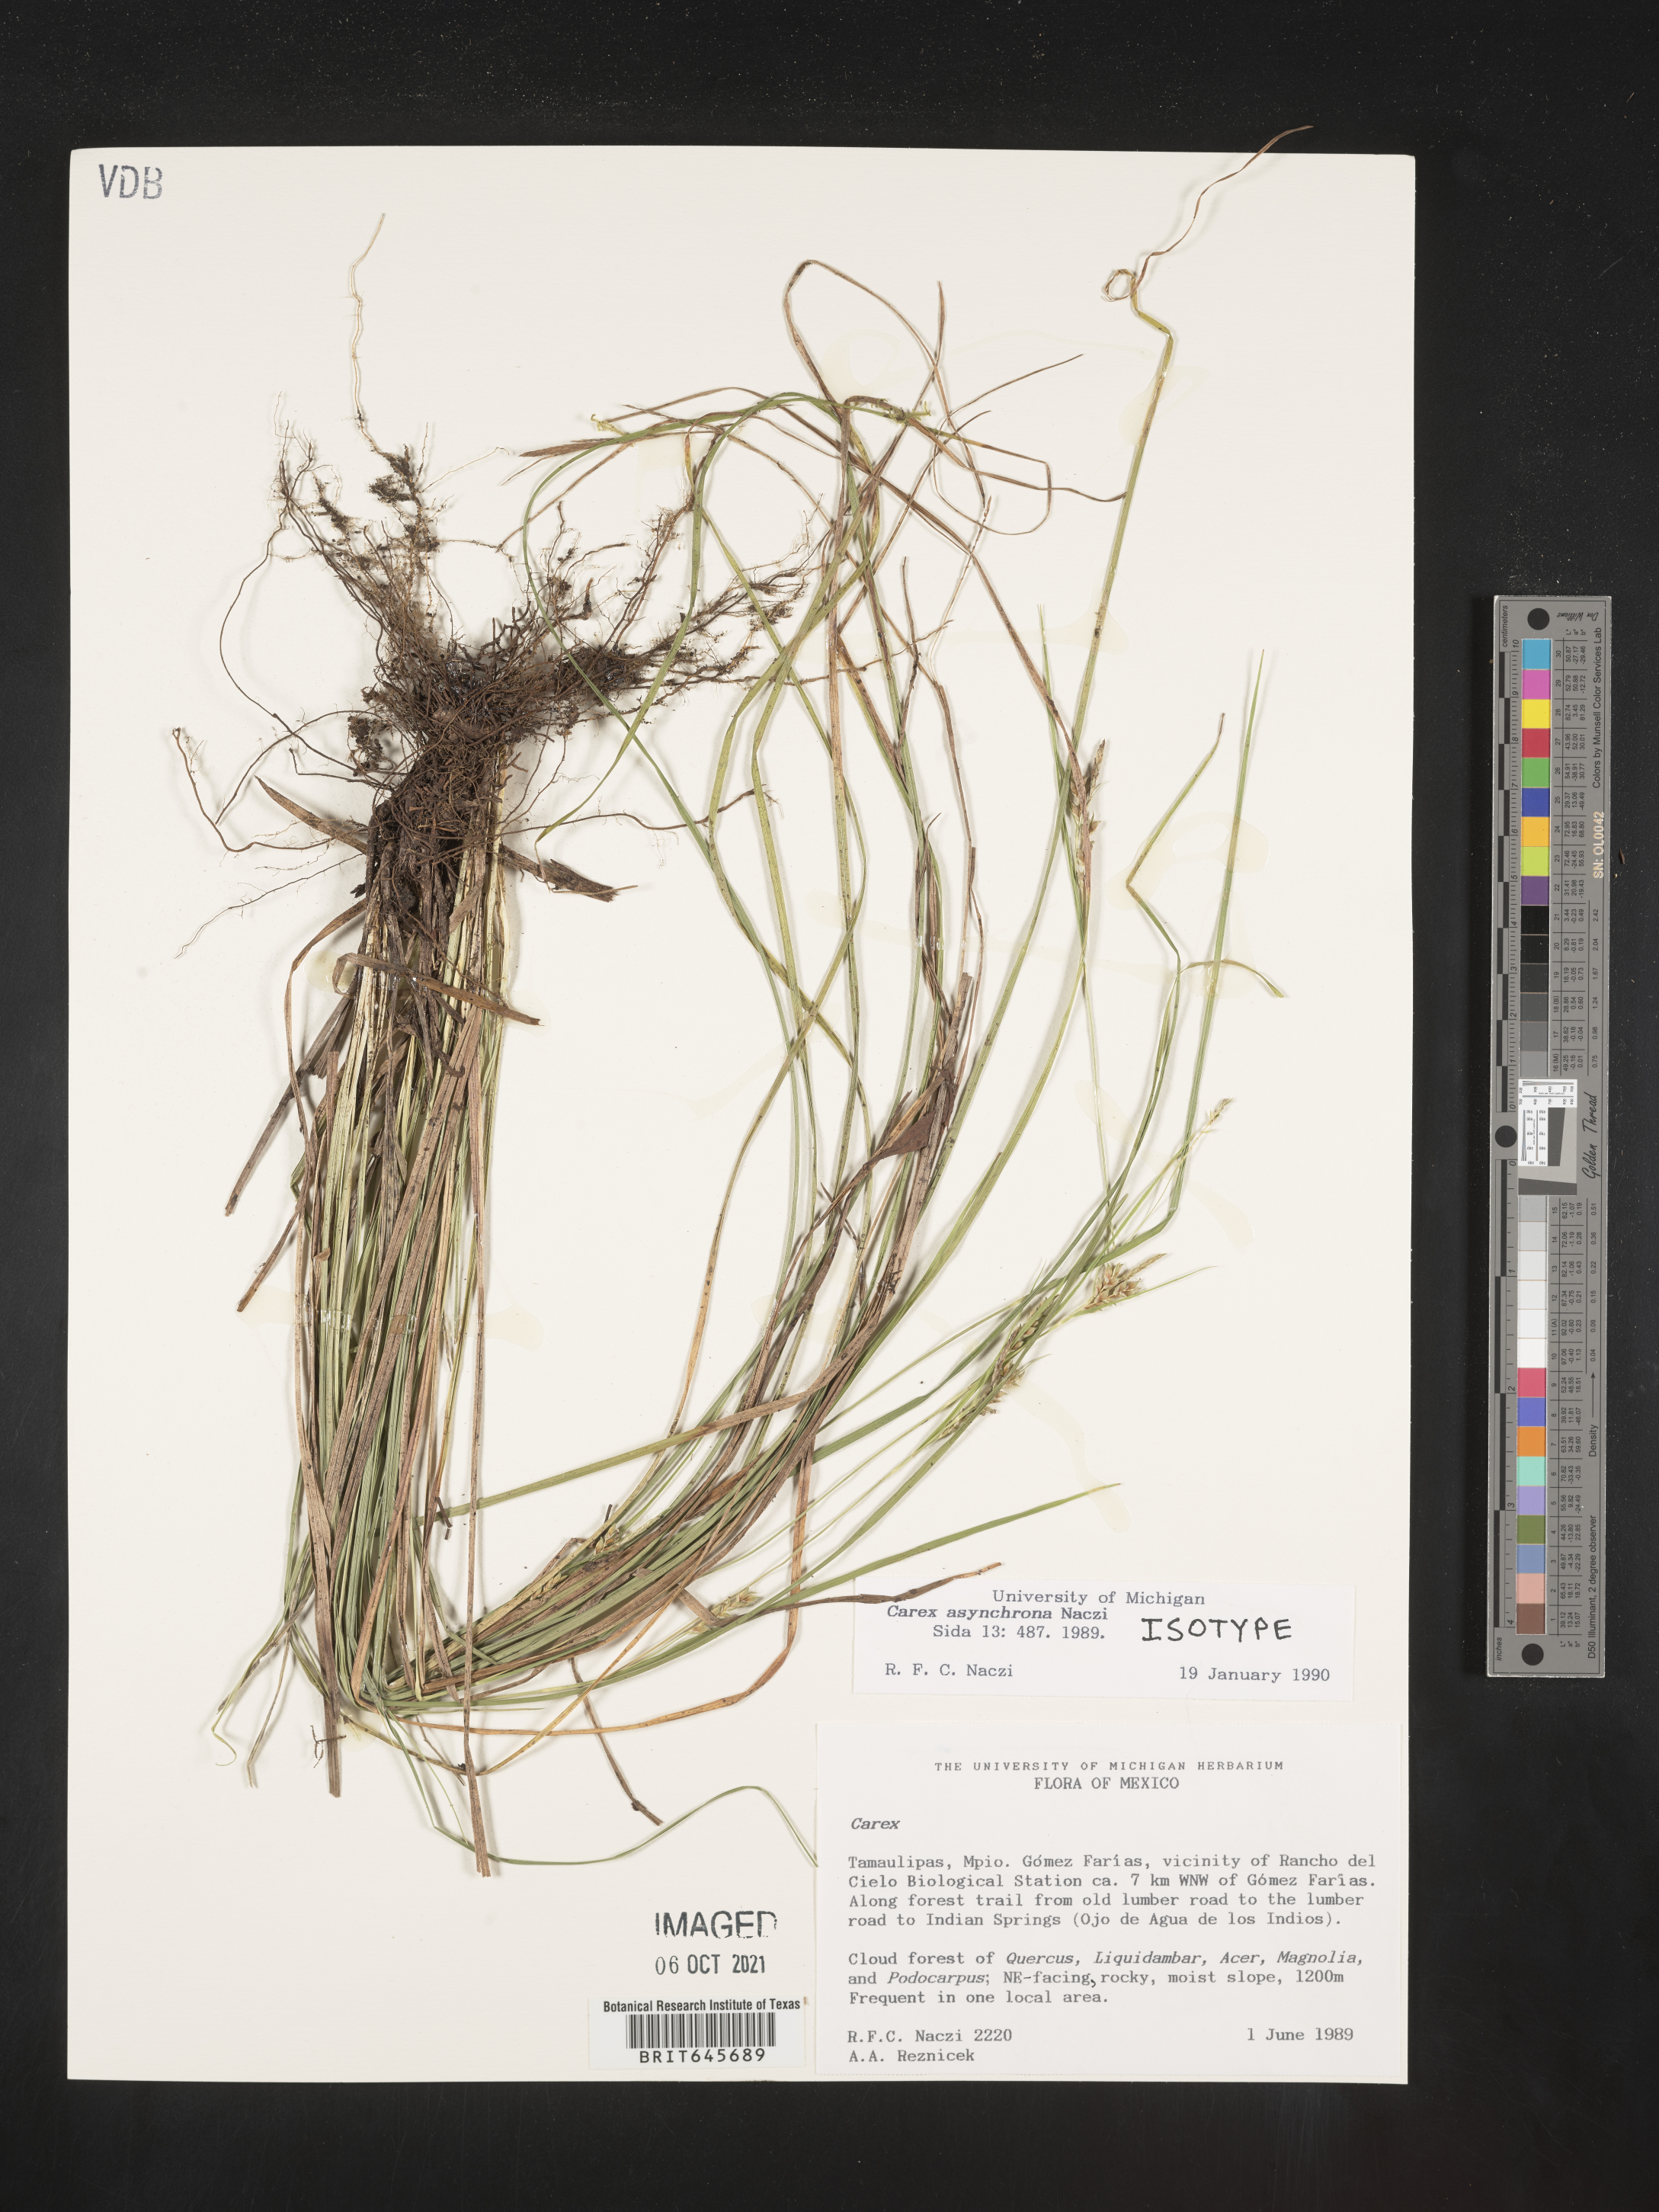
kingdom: Plantae
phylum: Tracheophyta
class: Liliopsida
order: Poales
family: Cyperaceae
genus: Carex
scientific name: Carex asynchrona
